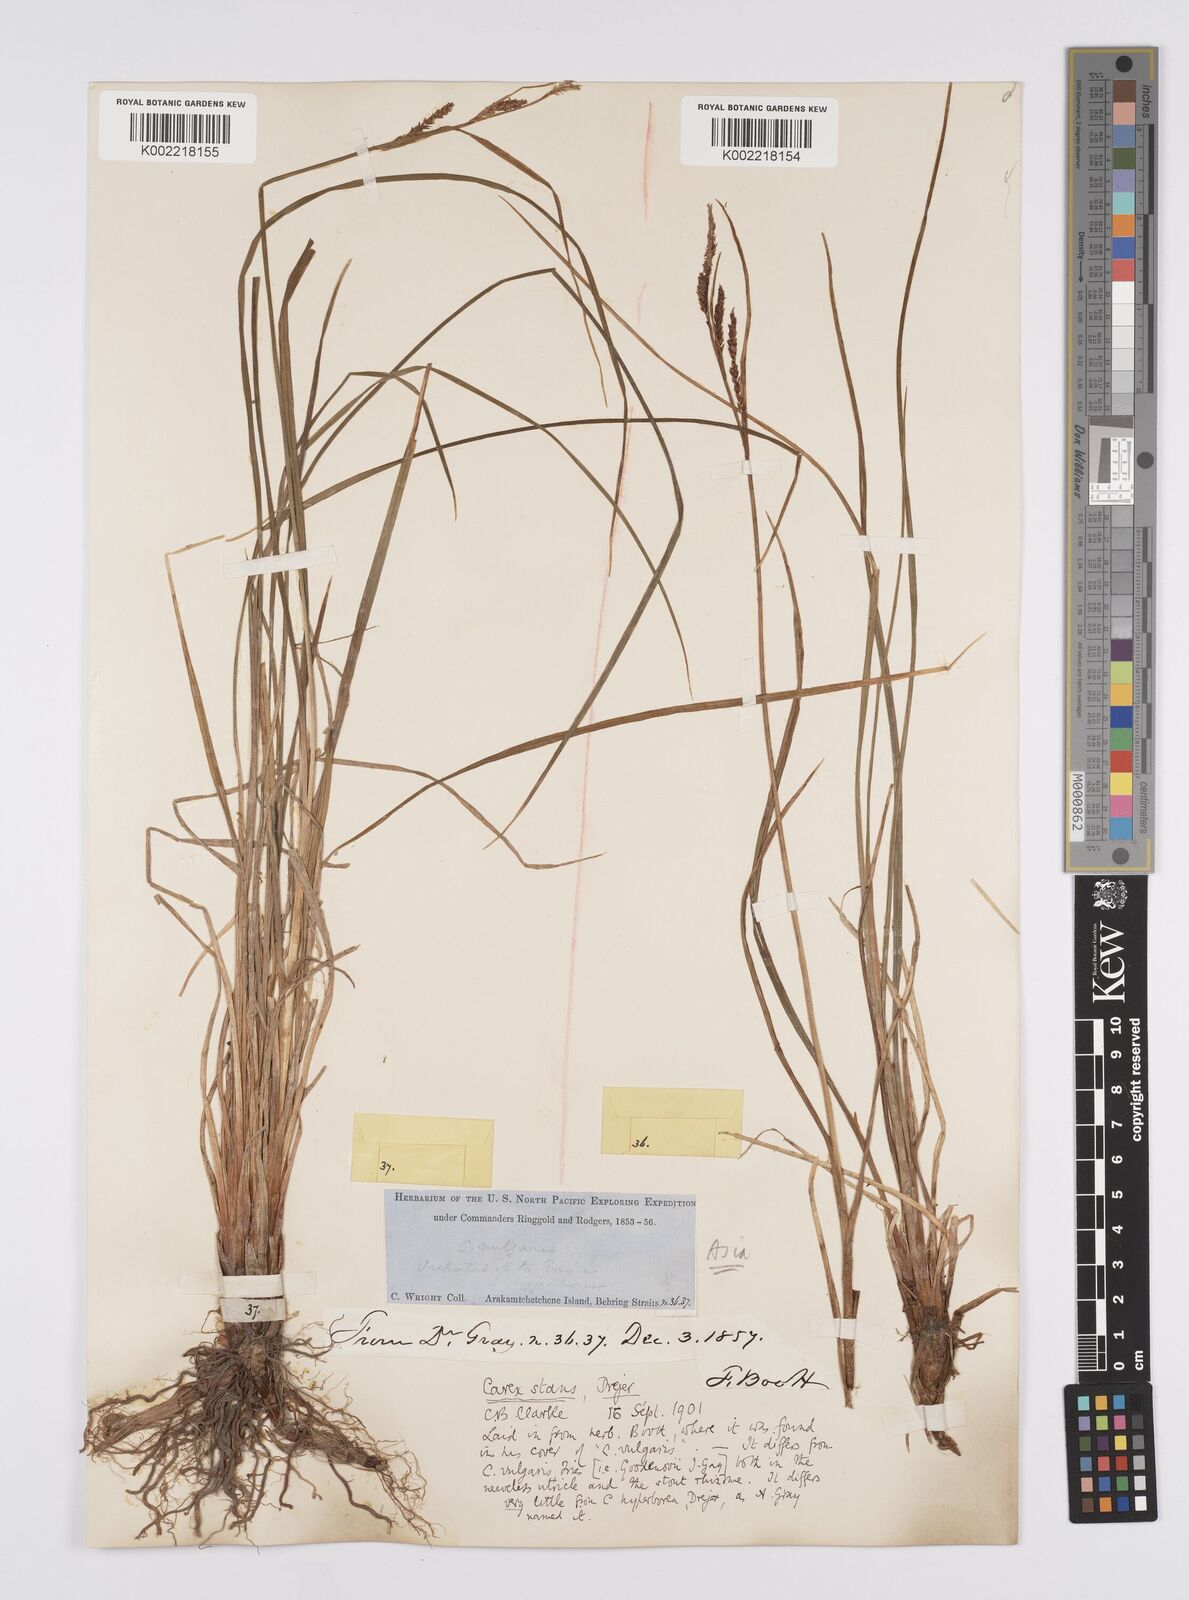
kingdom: Plantae
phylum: Tracheophyta
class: Liliopsida
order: Poales
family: Cyperaceae
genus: Carex
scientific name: Carex microsaccus
